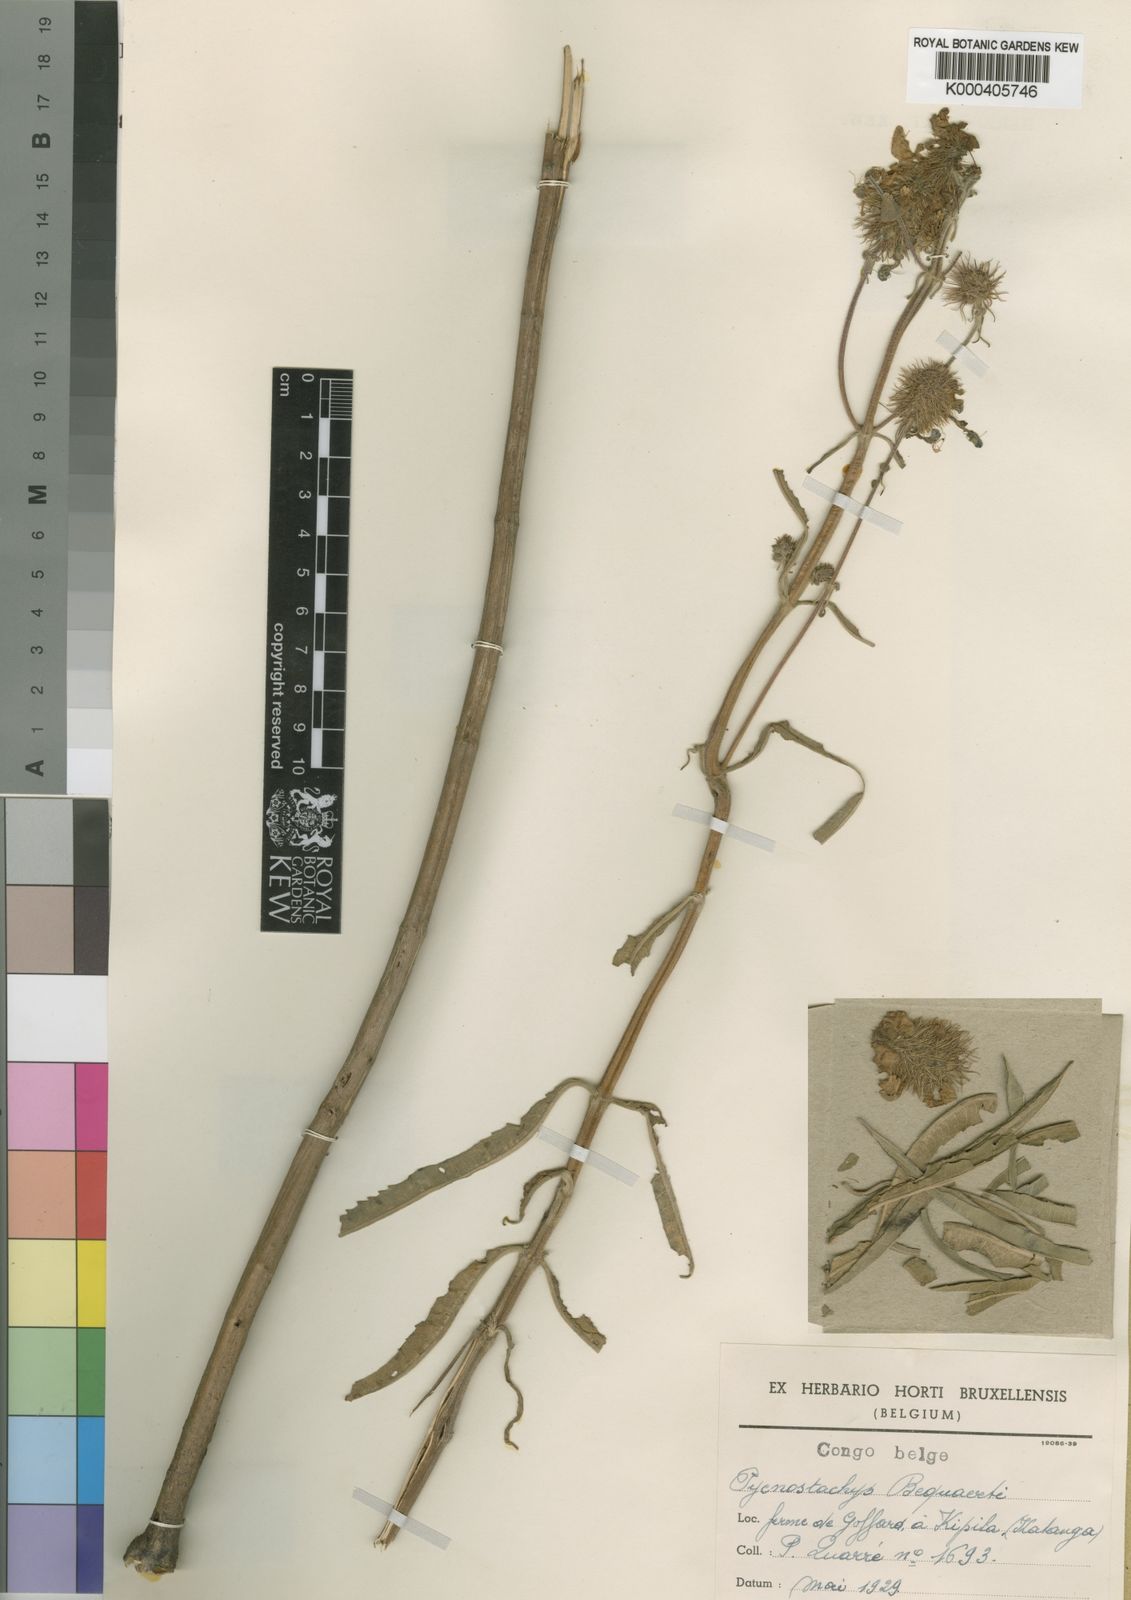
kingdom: Plantae
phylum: Tracheophyta
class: Magnoliopsida
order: Lamiales
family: Lamiaceae
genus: Coleus
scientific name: Coleus
